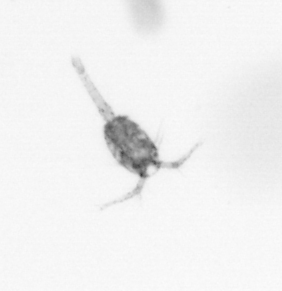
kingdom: Animalia
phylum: Arthropoda
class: Copepoda
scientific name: Copepoda
